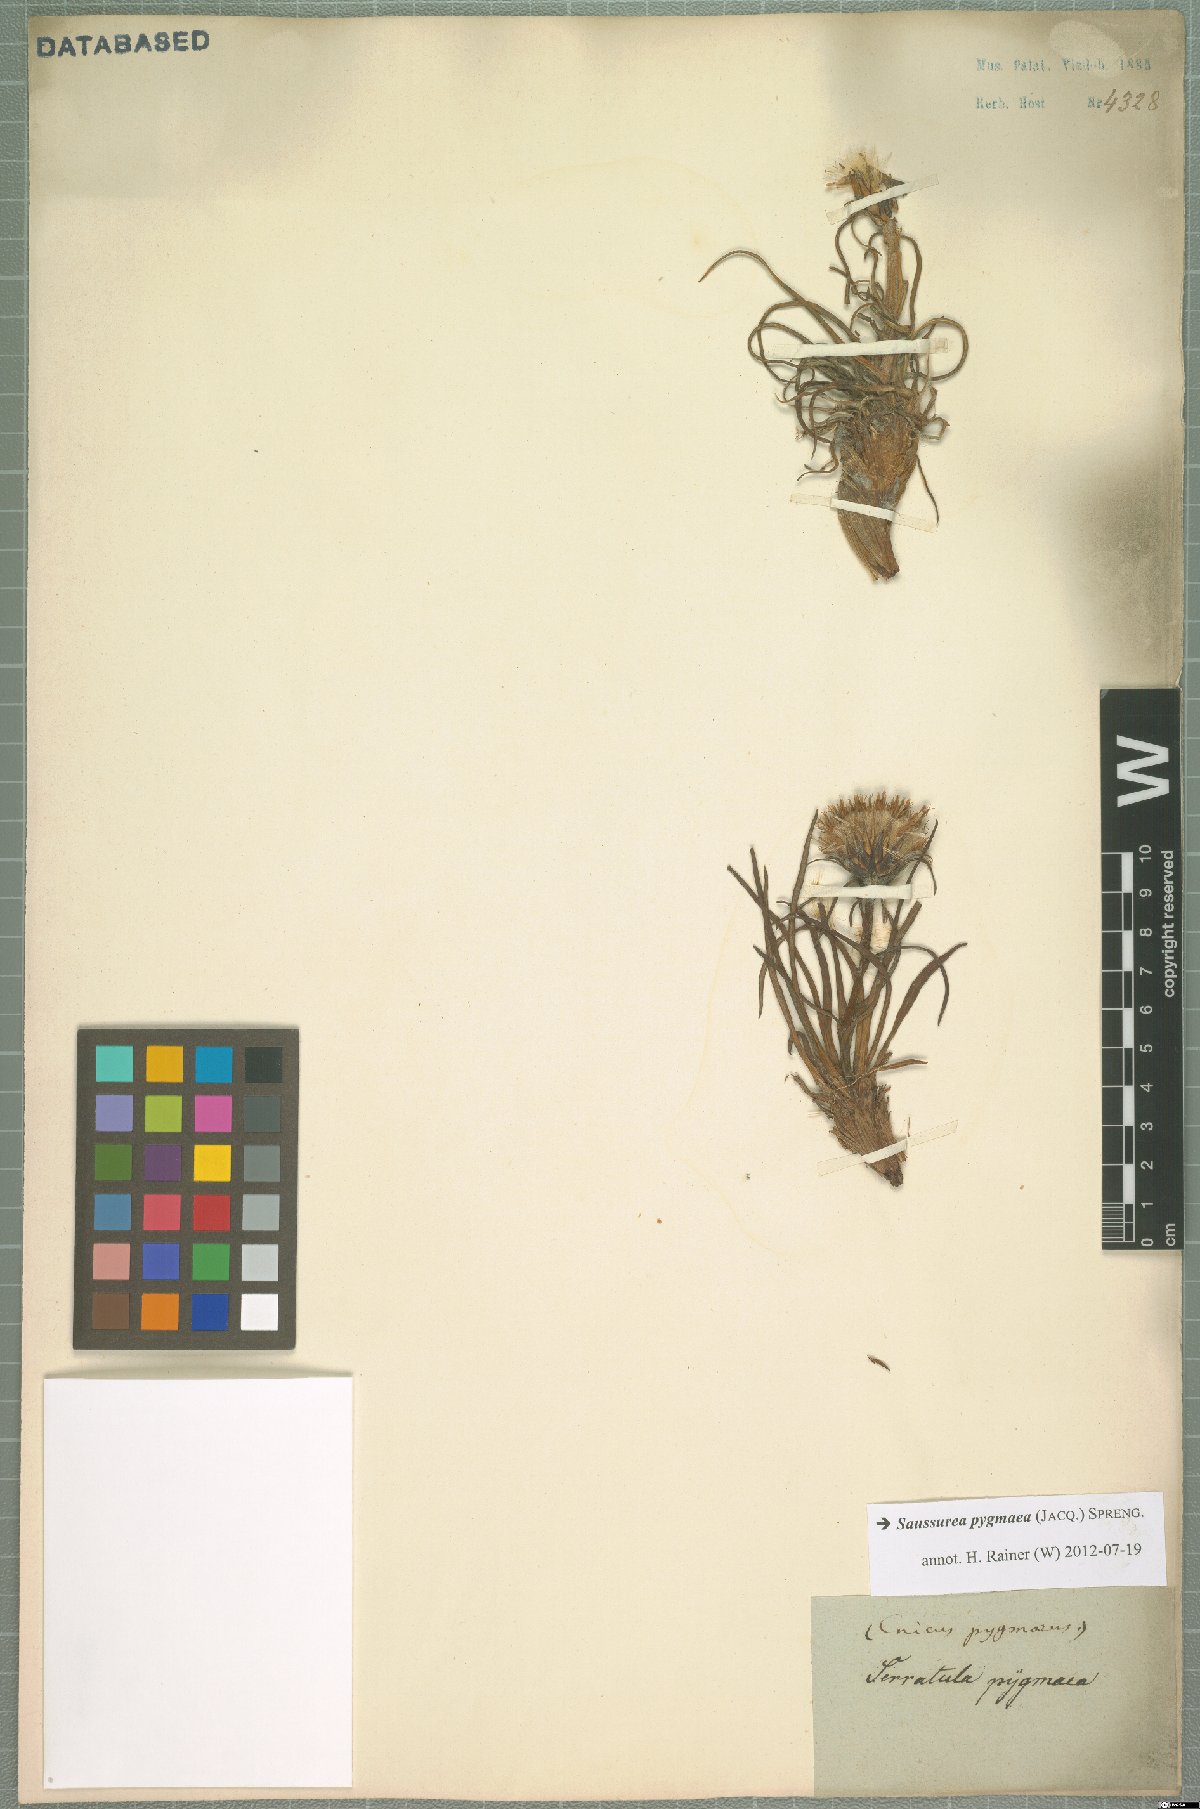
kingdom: Plantae
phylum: Tracheophyta
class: Magnoliopsida
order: Asterales
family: Asteraceae
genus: Saussurea
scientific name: Saussurea pygmaea
